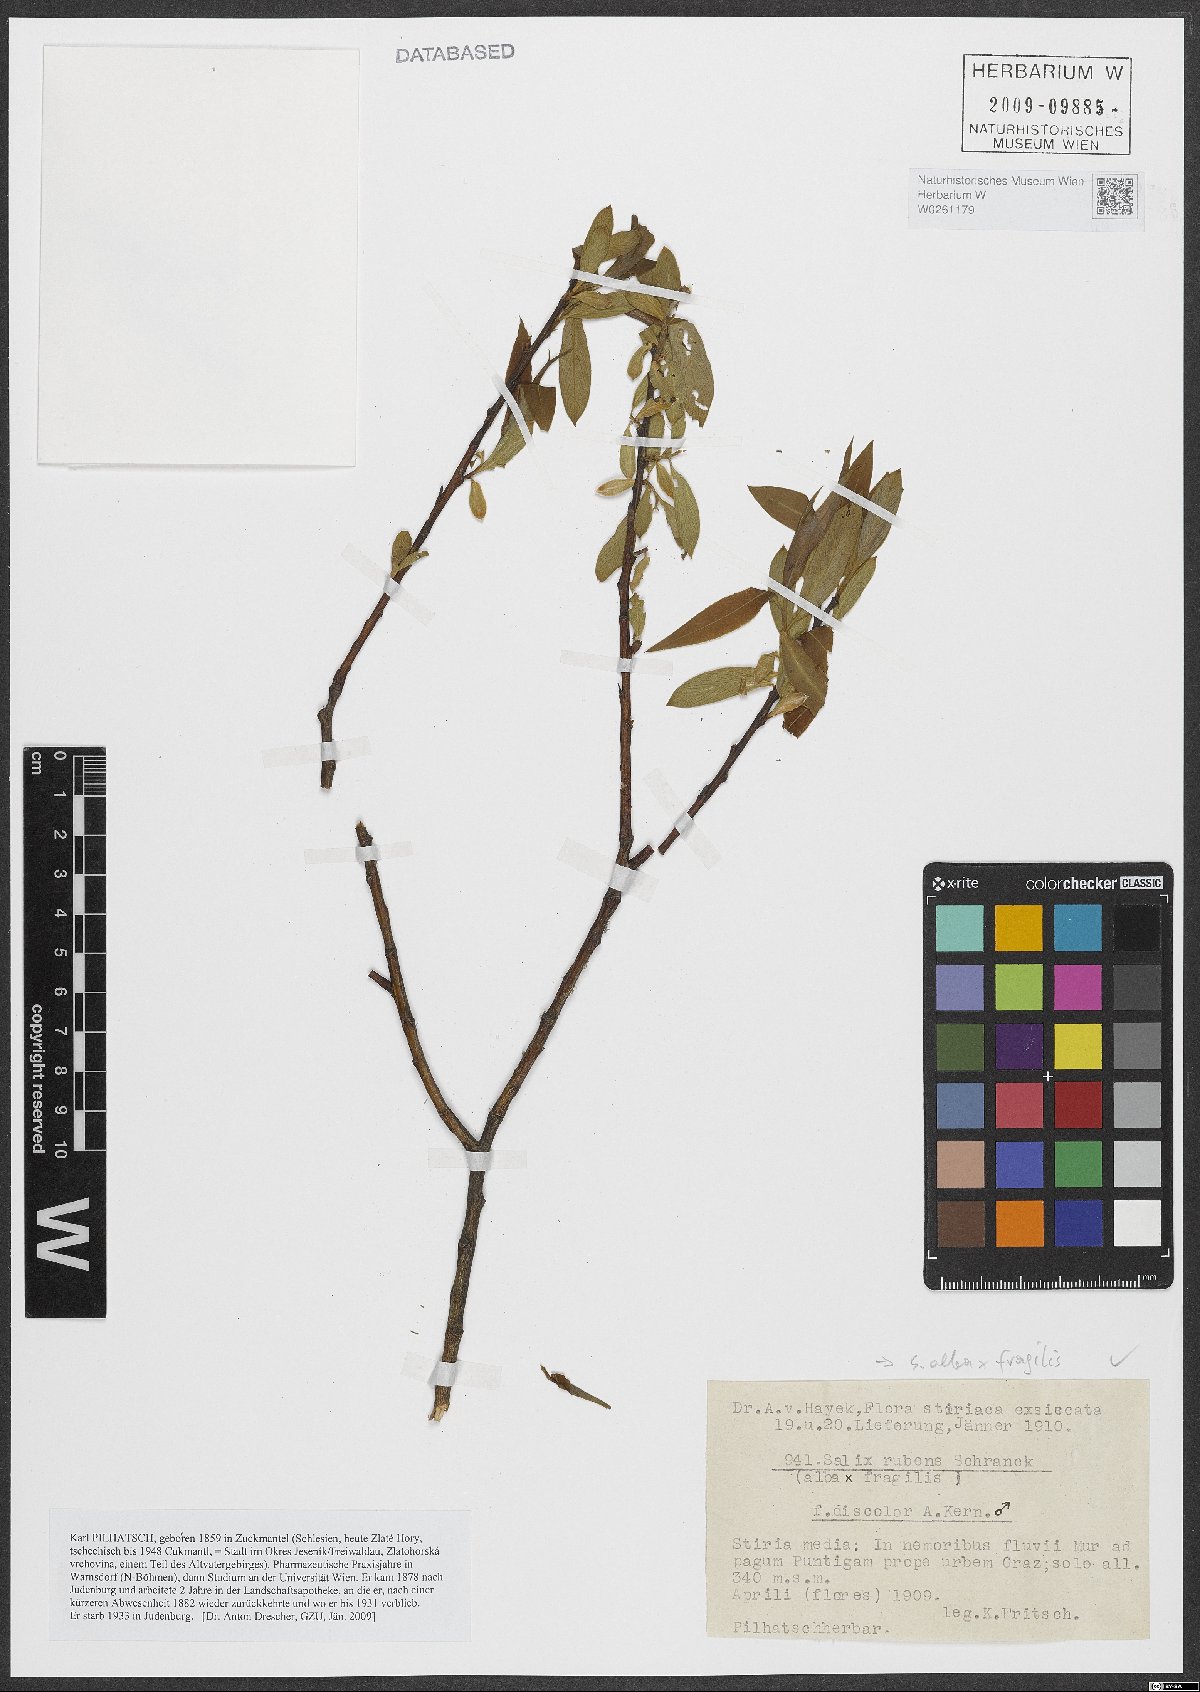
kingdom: Plantae
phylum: Tracheophyta
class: Magnoliopsida
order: Malpighiales
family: Salicaceae
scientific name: Salicaceae
